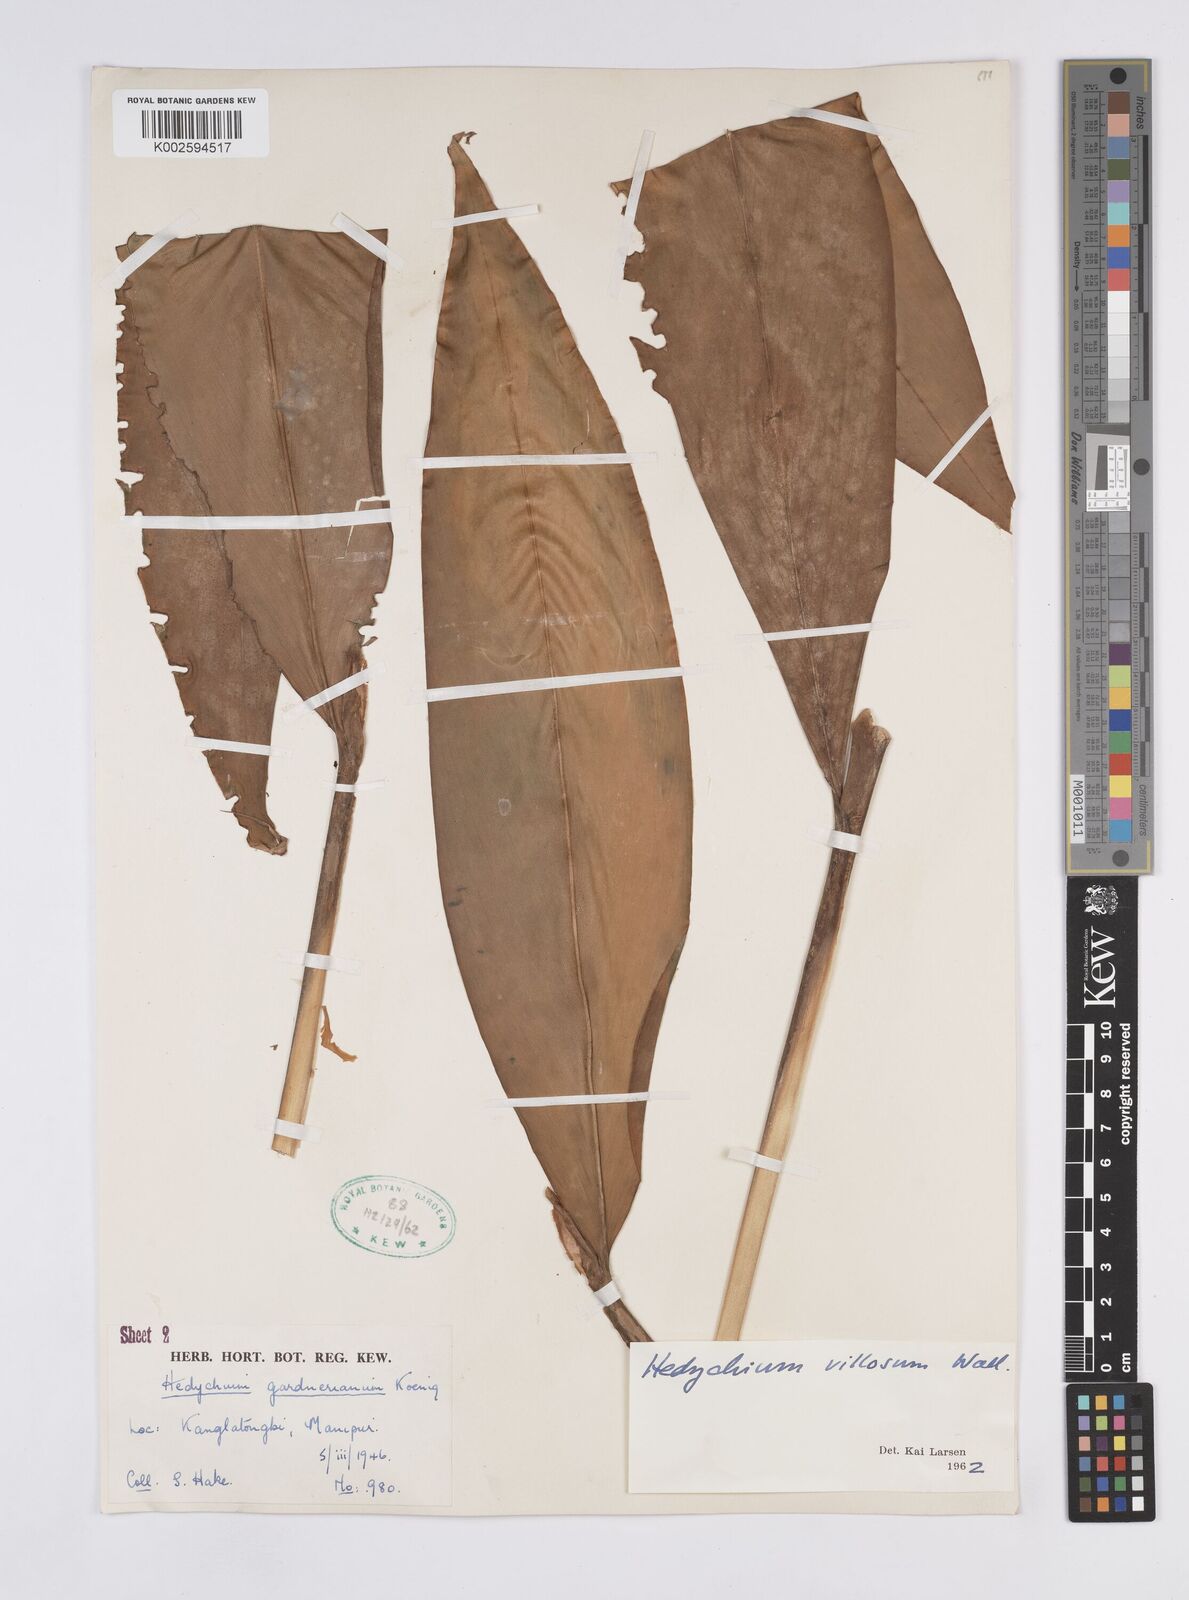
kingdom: Plantae
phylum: Tracheophyta
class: Liliopsida
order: Zingiberales
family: Zingiberaceae
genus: Hedychium
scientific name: Hedychium villosum
